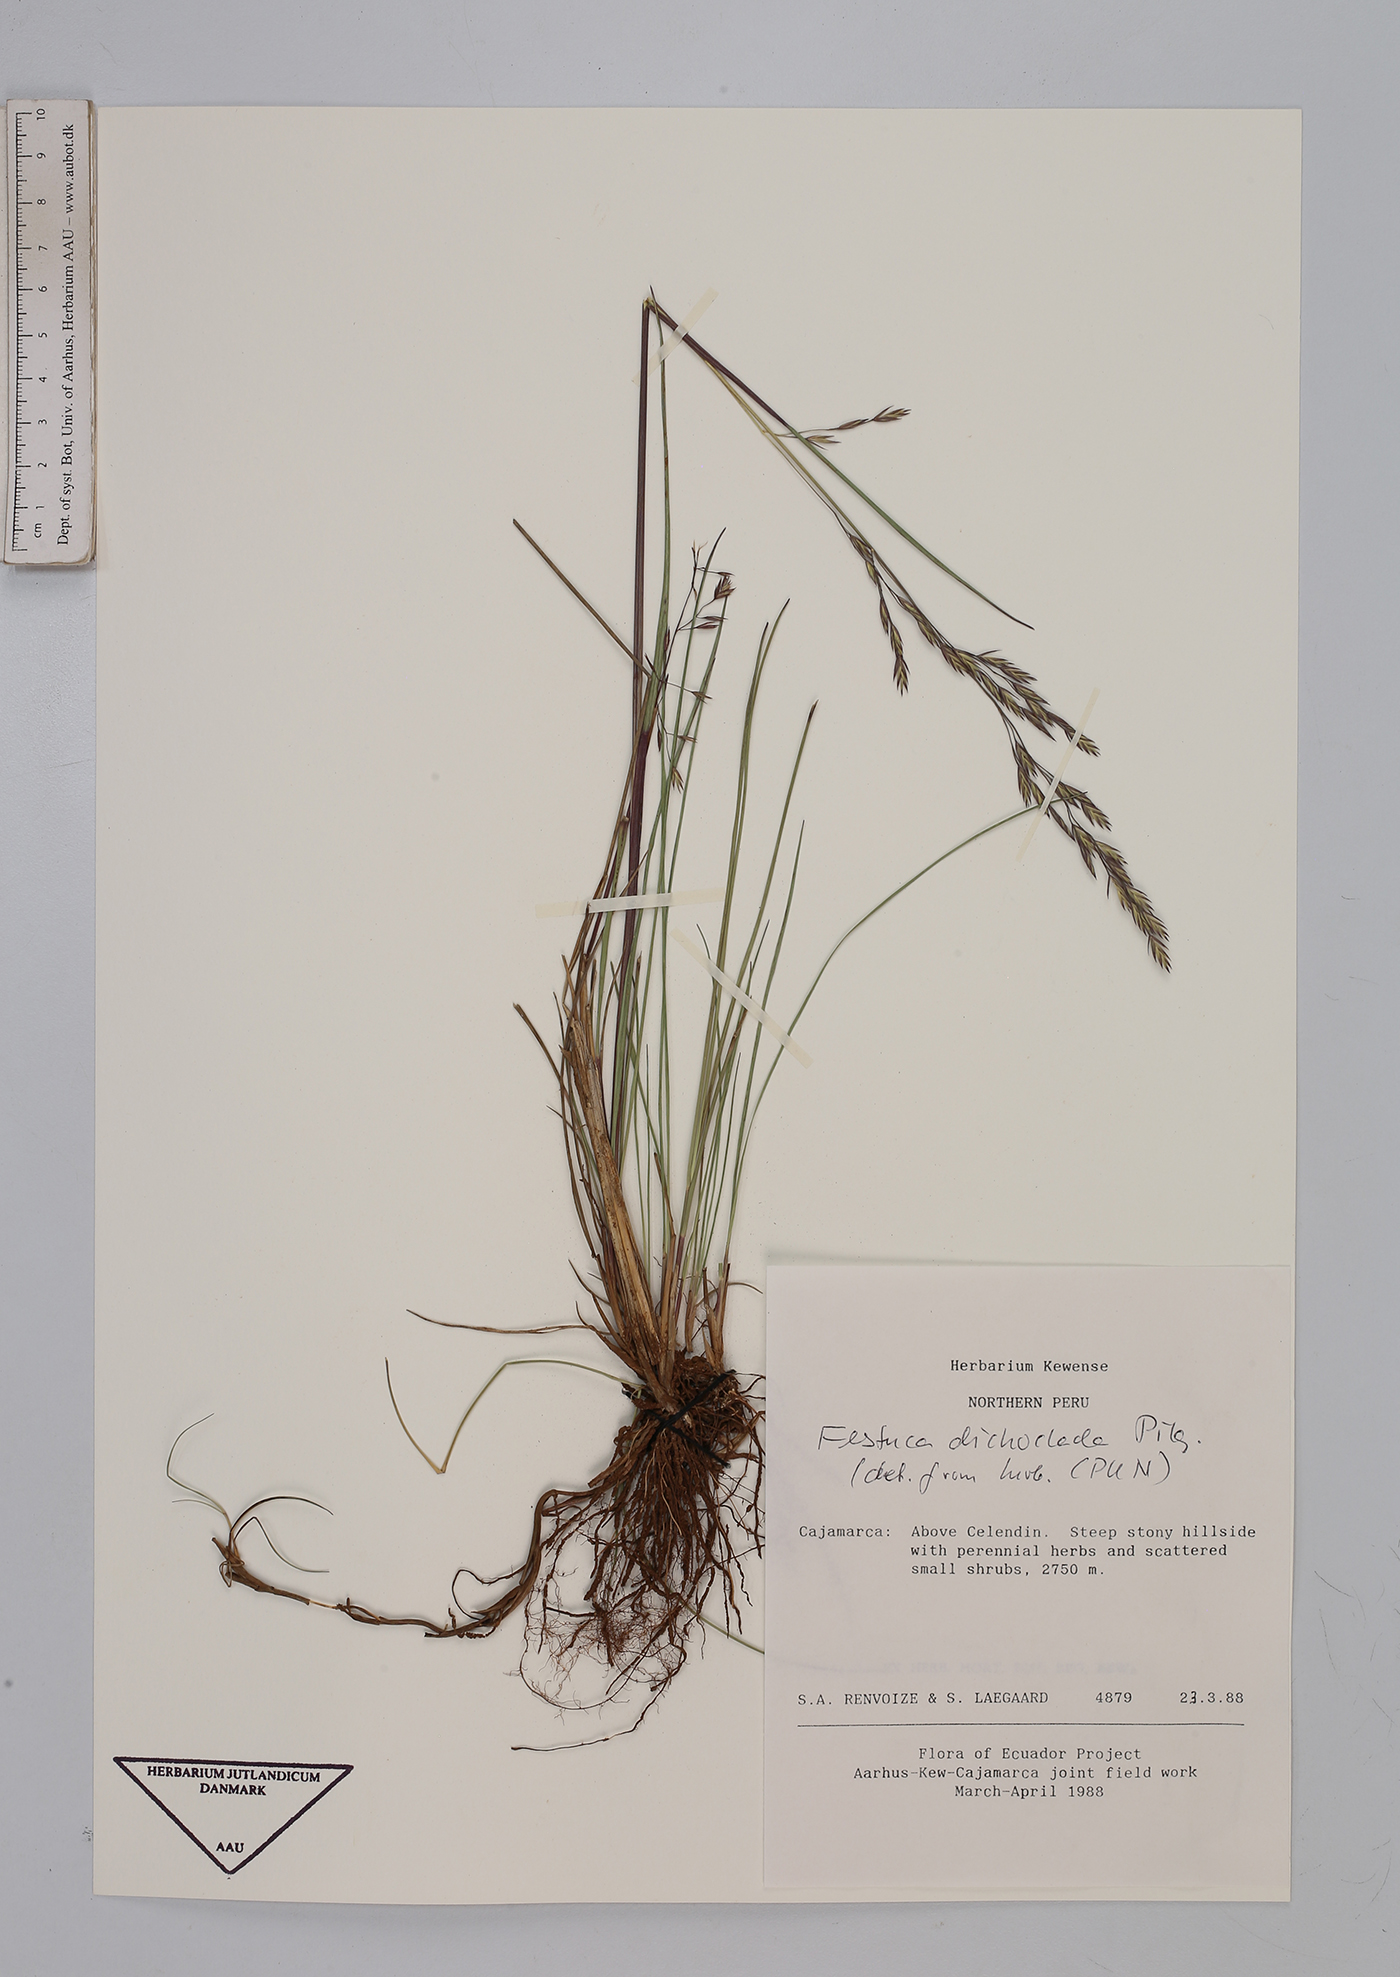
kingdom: Plantae
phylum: Tracheophyta
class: Liliopsida
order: Poales
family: Poaceae
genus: Festuca
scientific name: Festuca dichoclada
